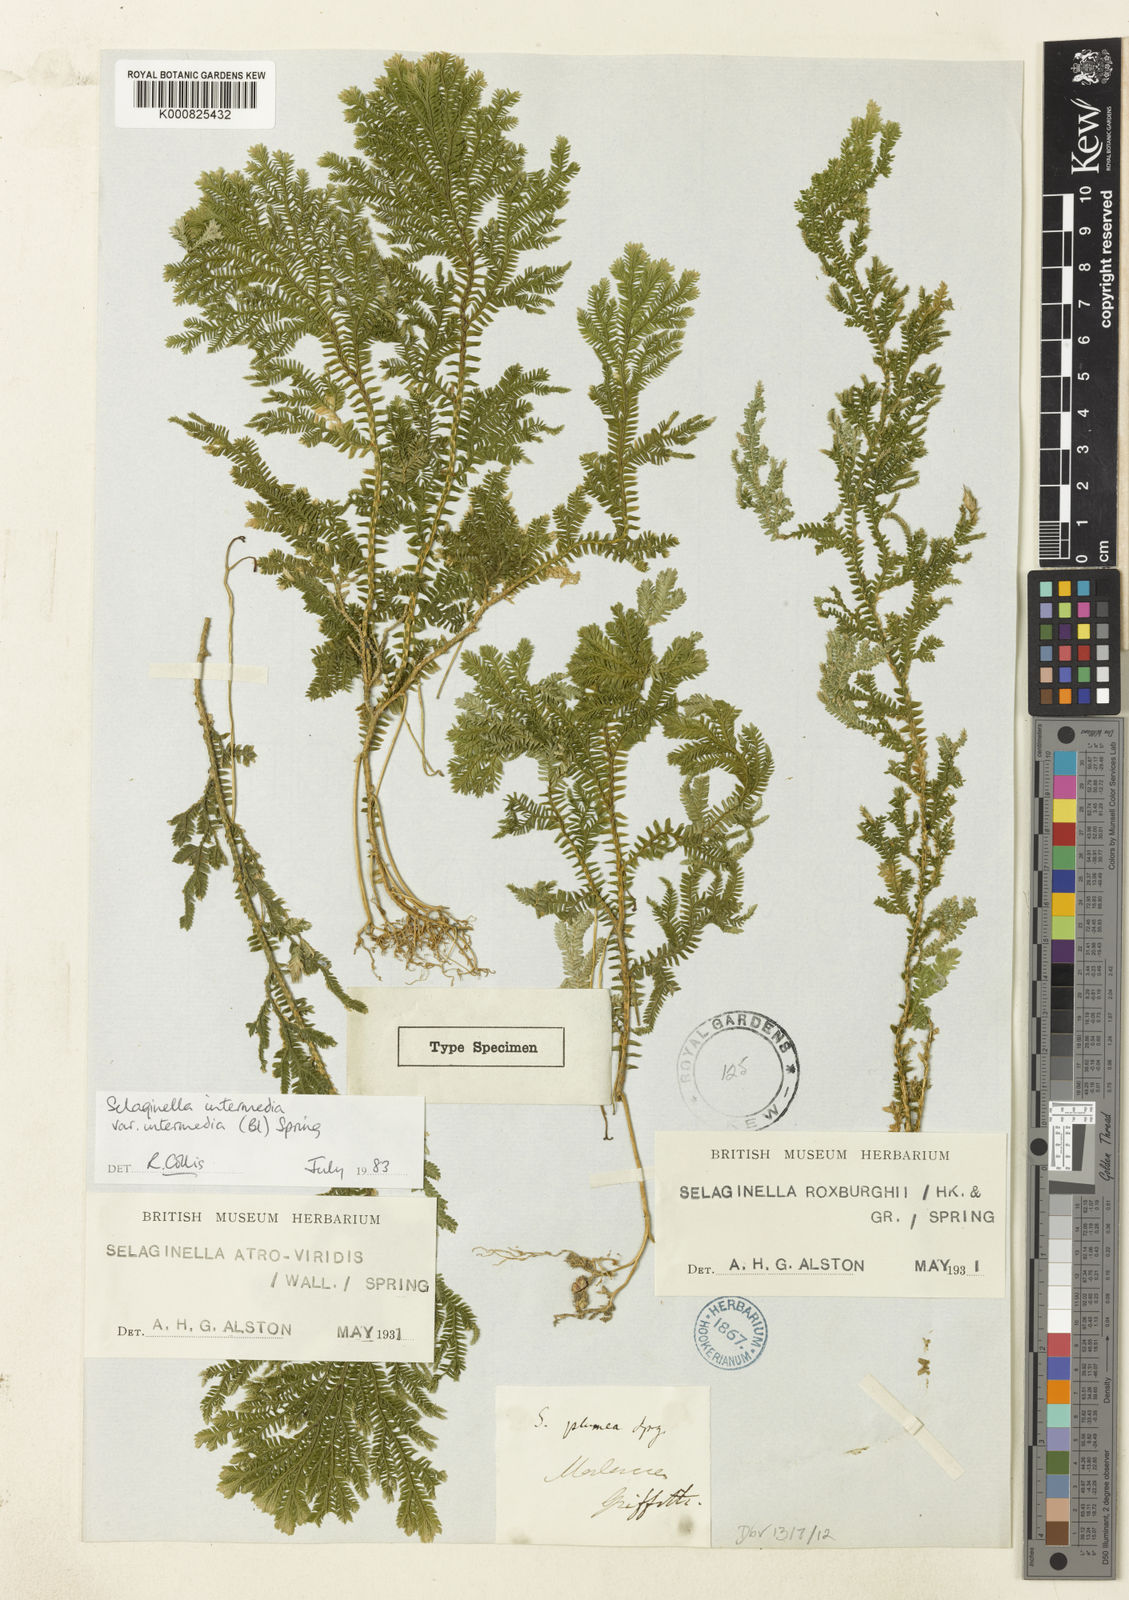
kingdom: Plantae
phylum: Tracheophyta
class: Lycopodiopsida
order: Selaginellales
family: Selaginellaceae
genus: Selaginella
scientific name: Selaginella intermedia
